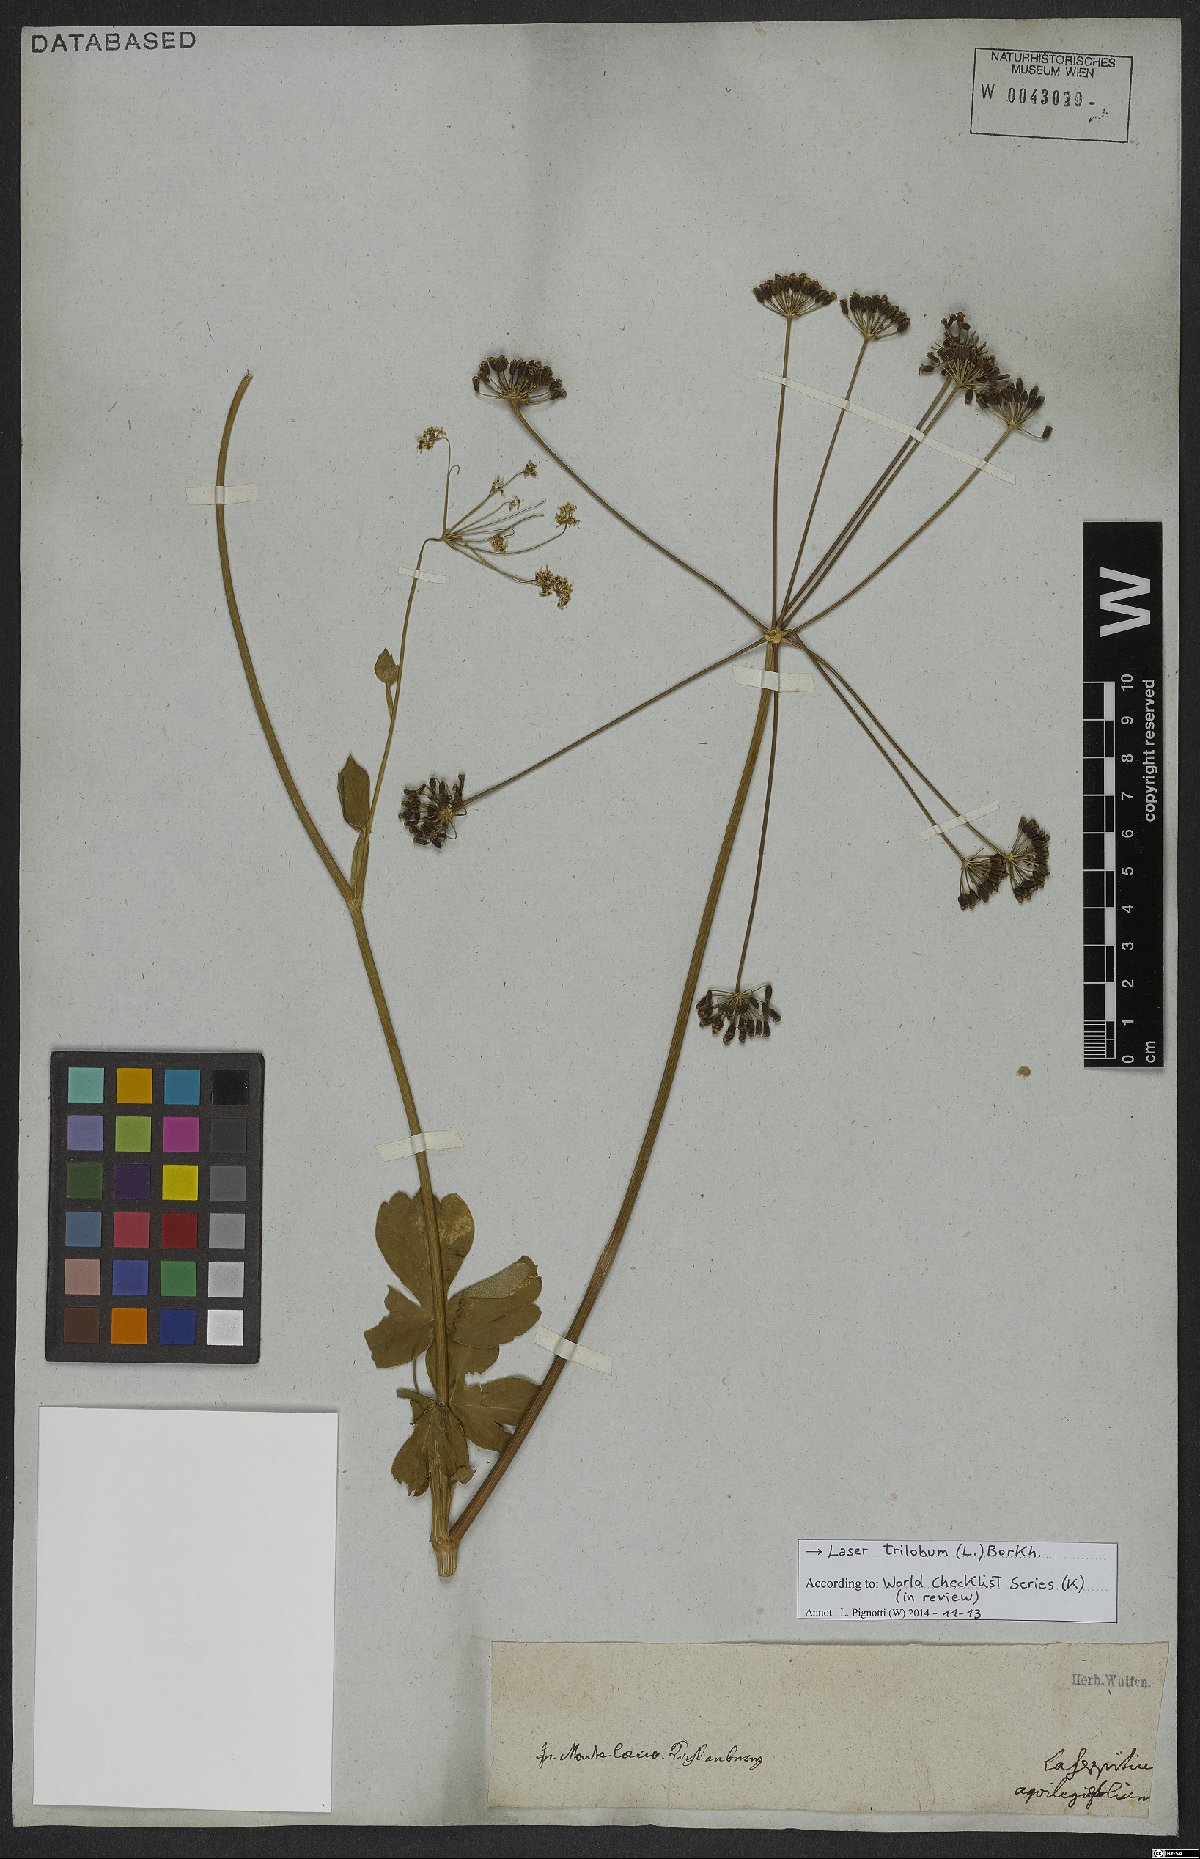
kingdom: Plantae
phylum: Tracheophyta
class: Magnoliopsida
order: Apiales
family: Apiaceae
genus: Laser
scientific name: Laser trilobum
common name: Laser
